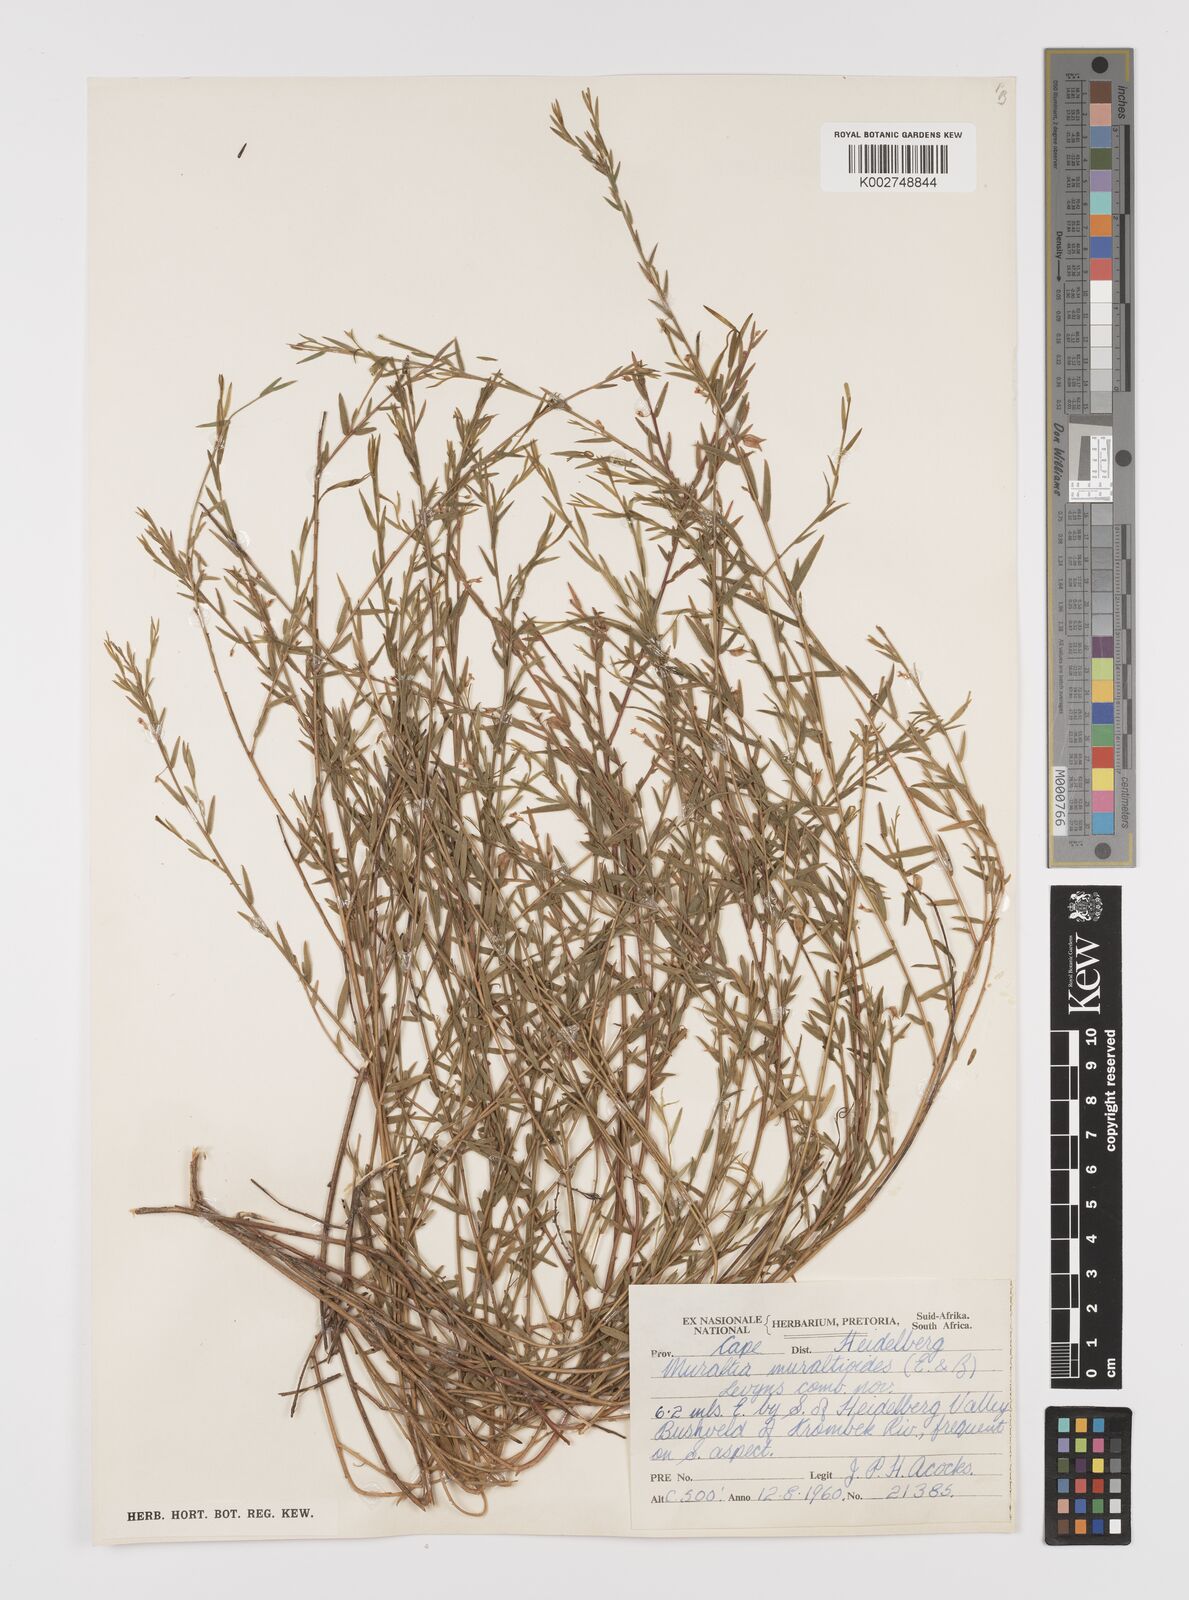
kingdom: Plantae
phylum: Tracheophyta
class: Magnoliopsida
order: Fabales
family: Polygalaceae
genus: Muraltia
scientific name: Muraltia muraltioides
